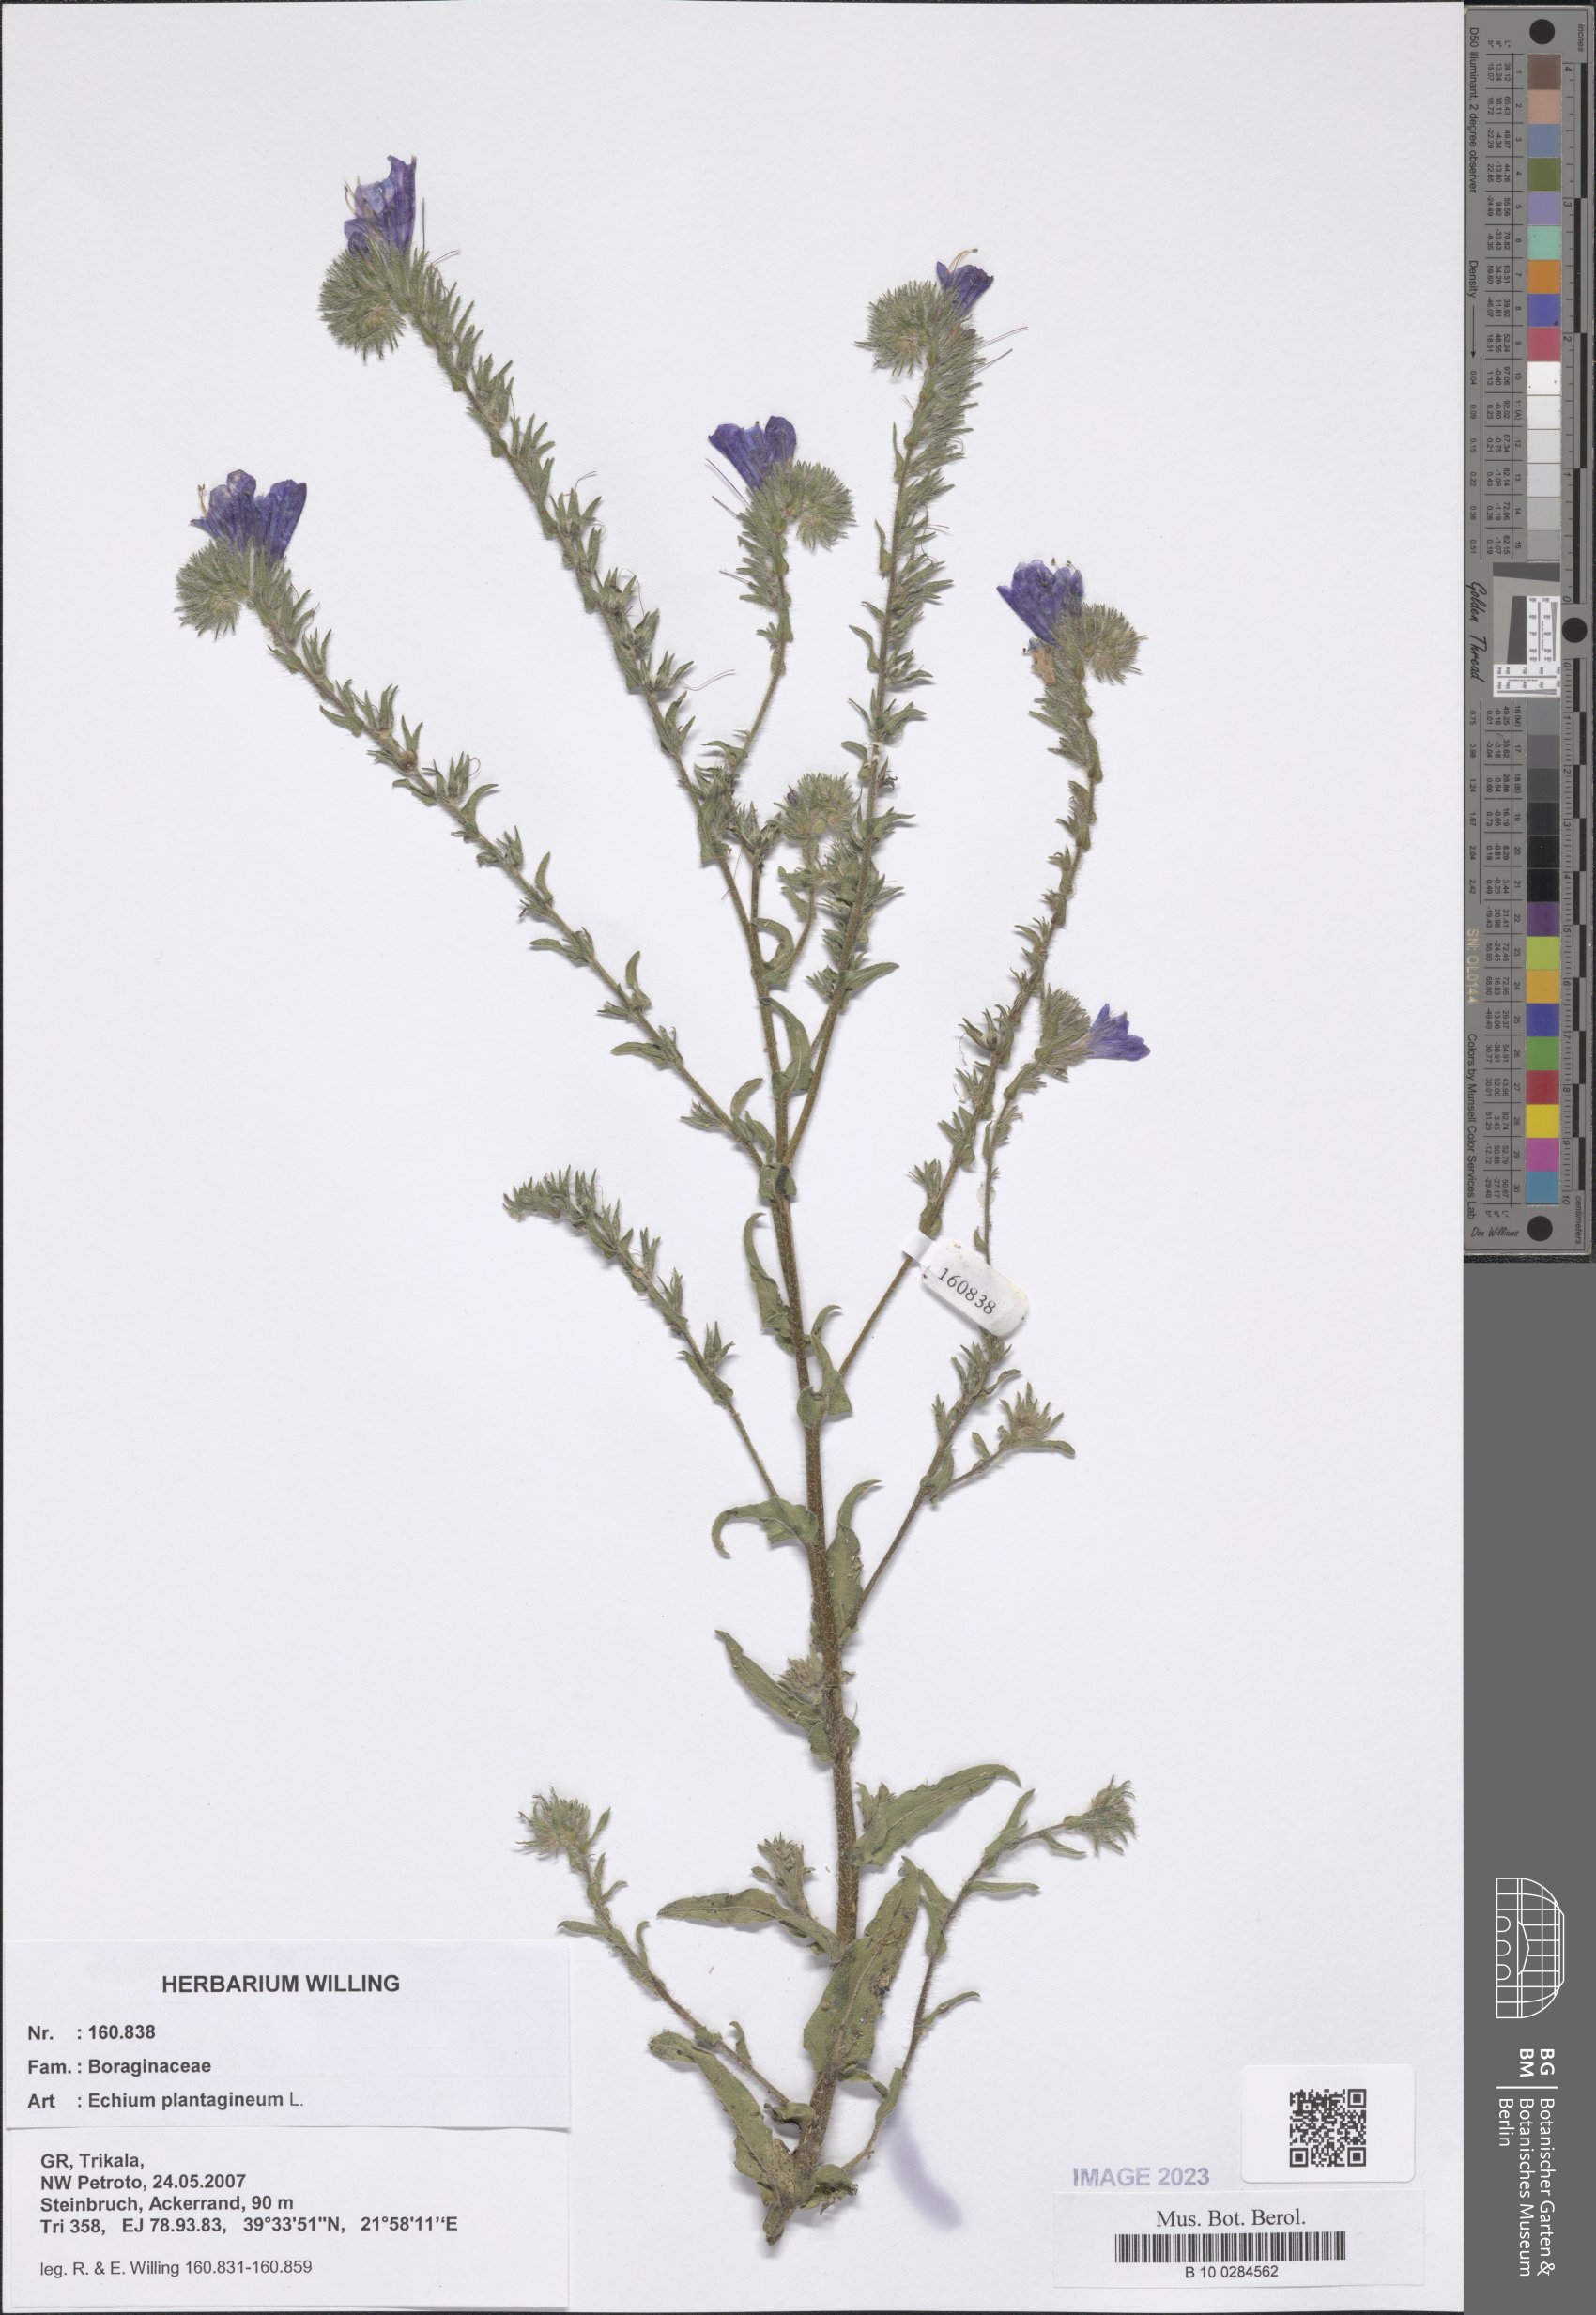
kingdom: Plantae
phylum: Tracheophyta
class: Magnoliopsida
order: Boraginales
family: Boraginaceae
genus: Echium
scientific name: Echium plantagineum
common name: Purple viper's-bugloss
